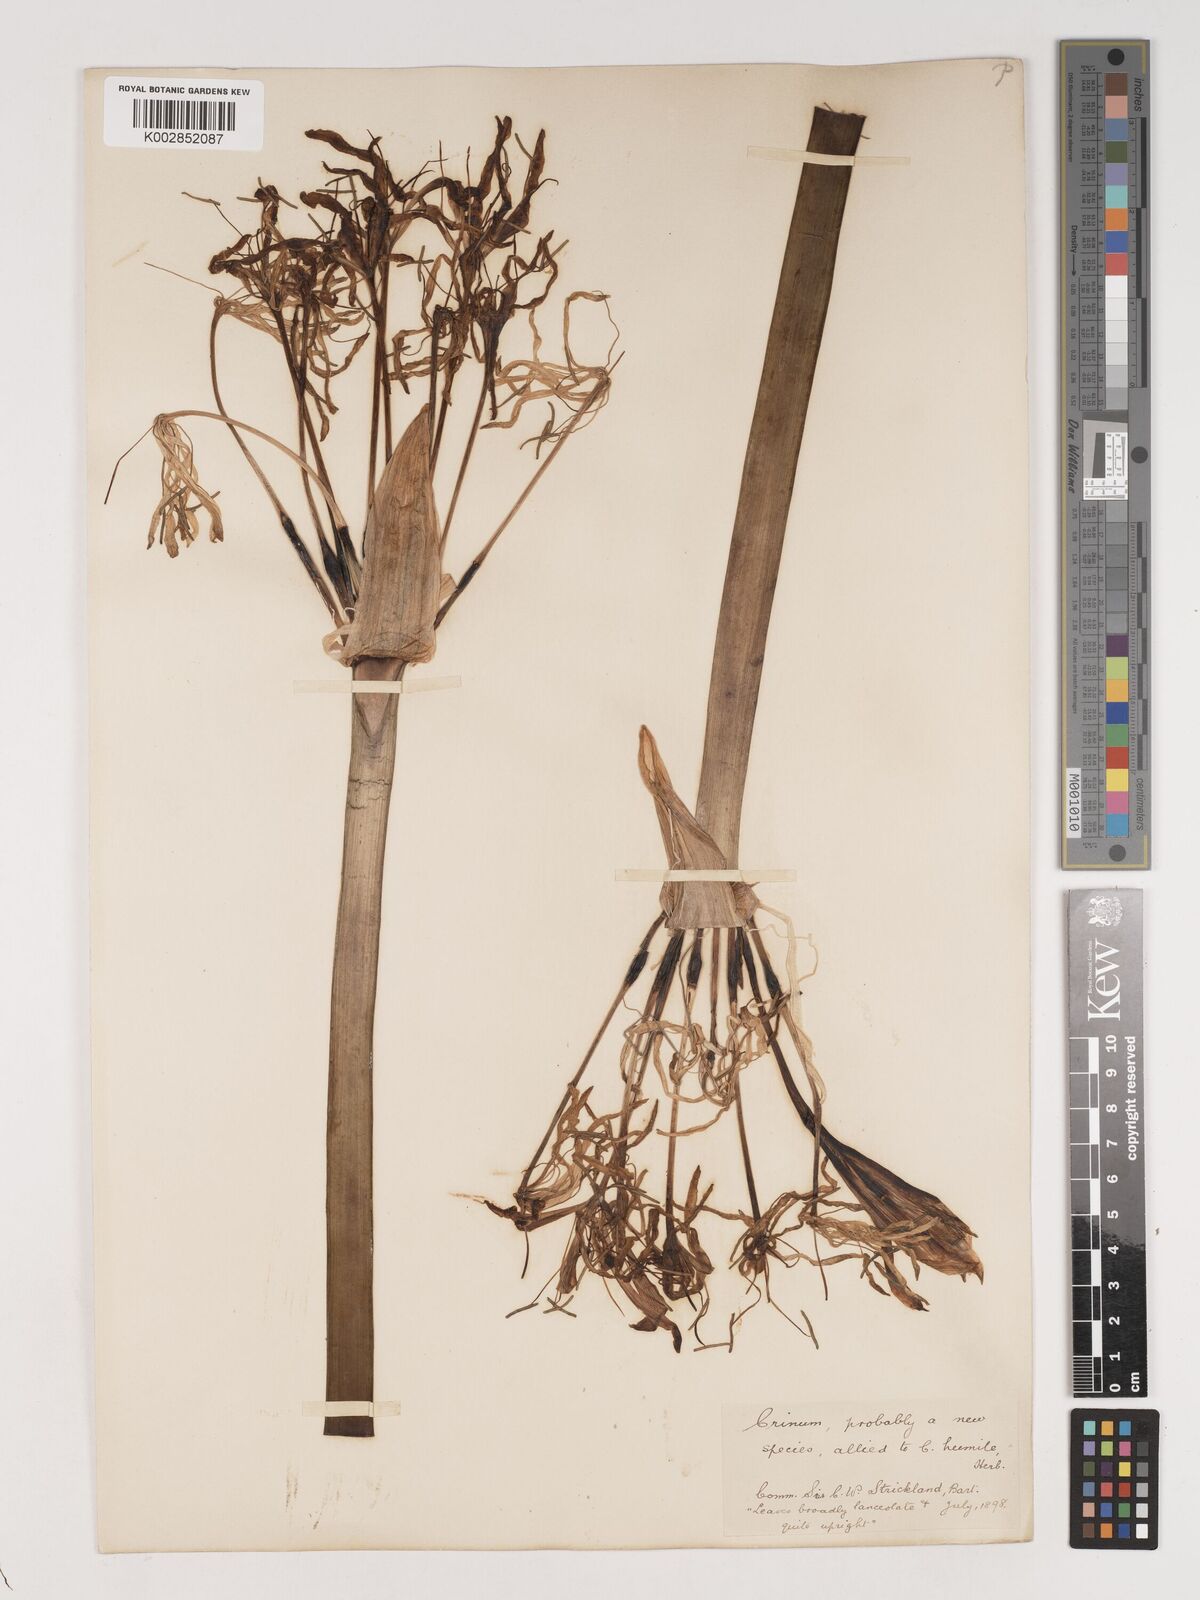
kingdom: Plantae
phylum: Tracheophyta
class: Liliopsida
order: Asparagales
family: Amaryllidaceae
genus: Crinum
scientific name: Crinum humile
